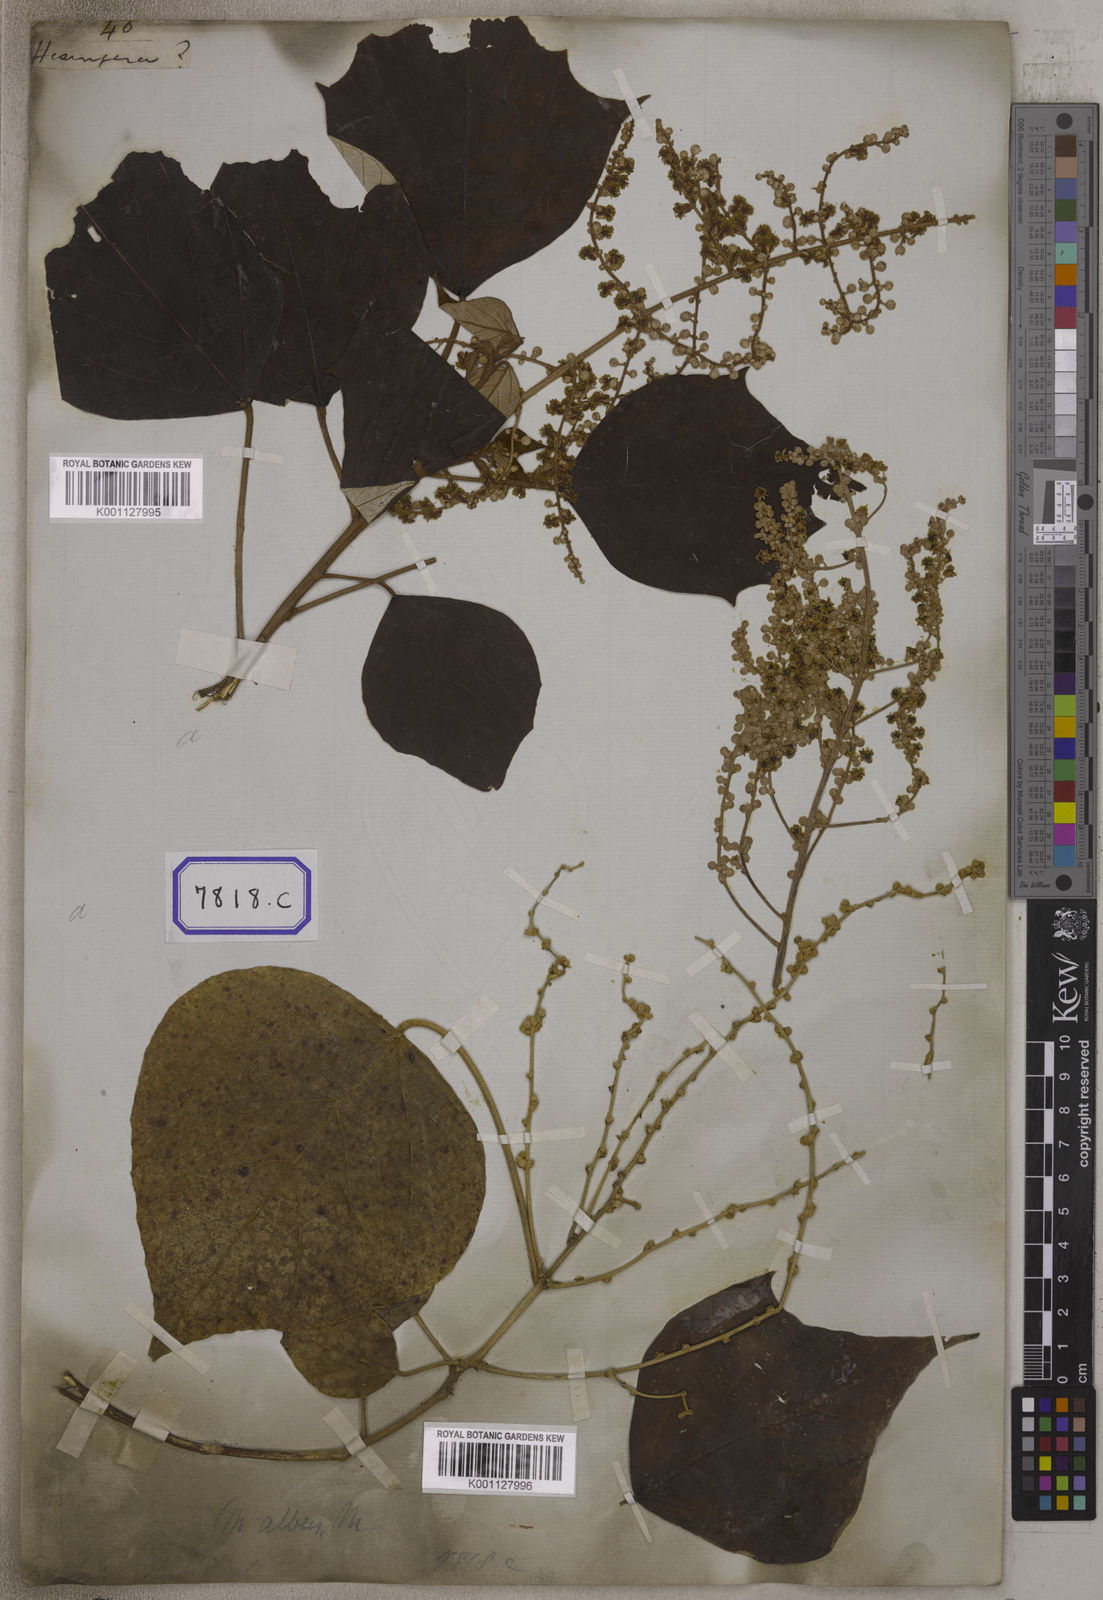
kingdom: Plantae
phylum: Tracheophyta
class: Magnoliopsida
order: Malpighiales
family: Euphorbiaceae
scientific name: Euphorbiaceae
